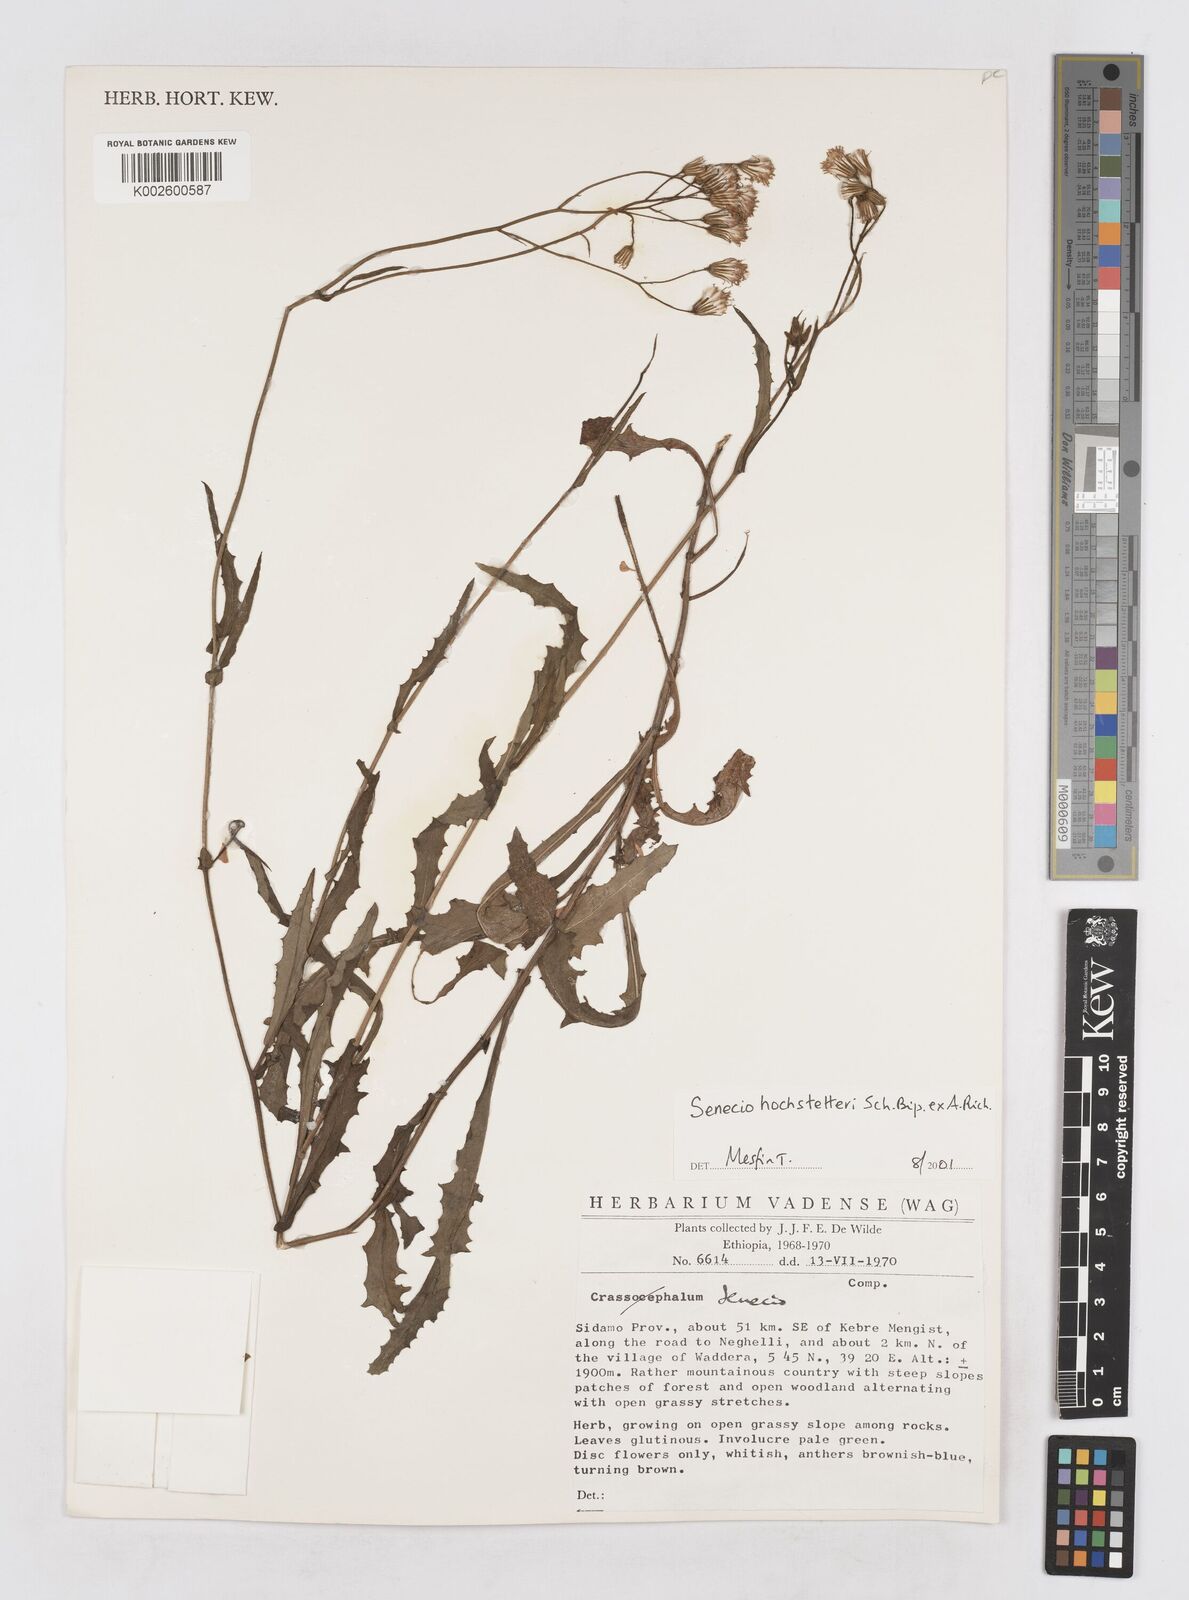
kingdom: Plantae
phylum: Tracheophyta
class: Magnoliopsida
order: Asterales
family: Asteraceae
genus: Senecio
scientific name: Senecio hochstetteri
